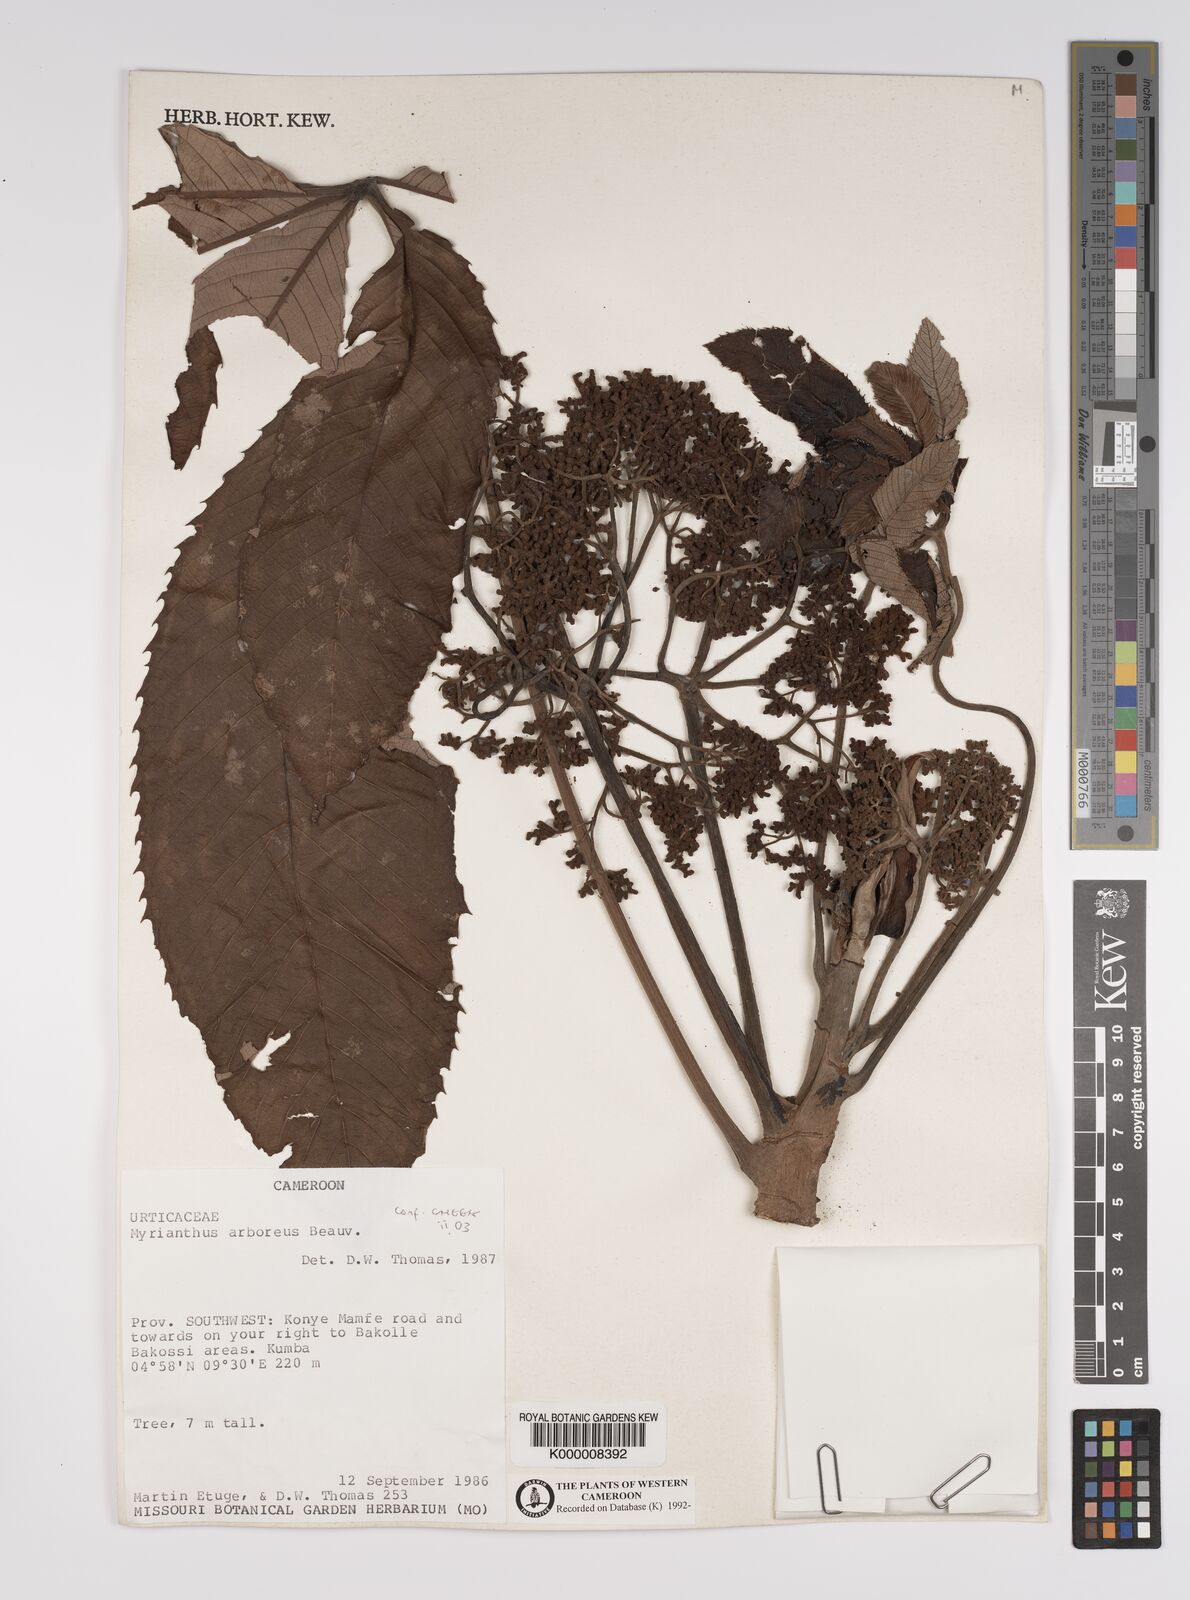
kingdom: Plantae
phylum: Tracheophyta
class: Magnoliopsida
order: Rosales
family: Urticaceae
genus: Myrianthus
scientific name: Myrianthus arboreus
